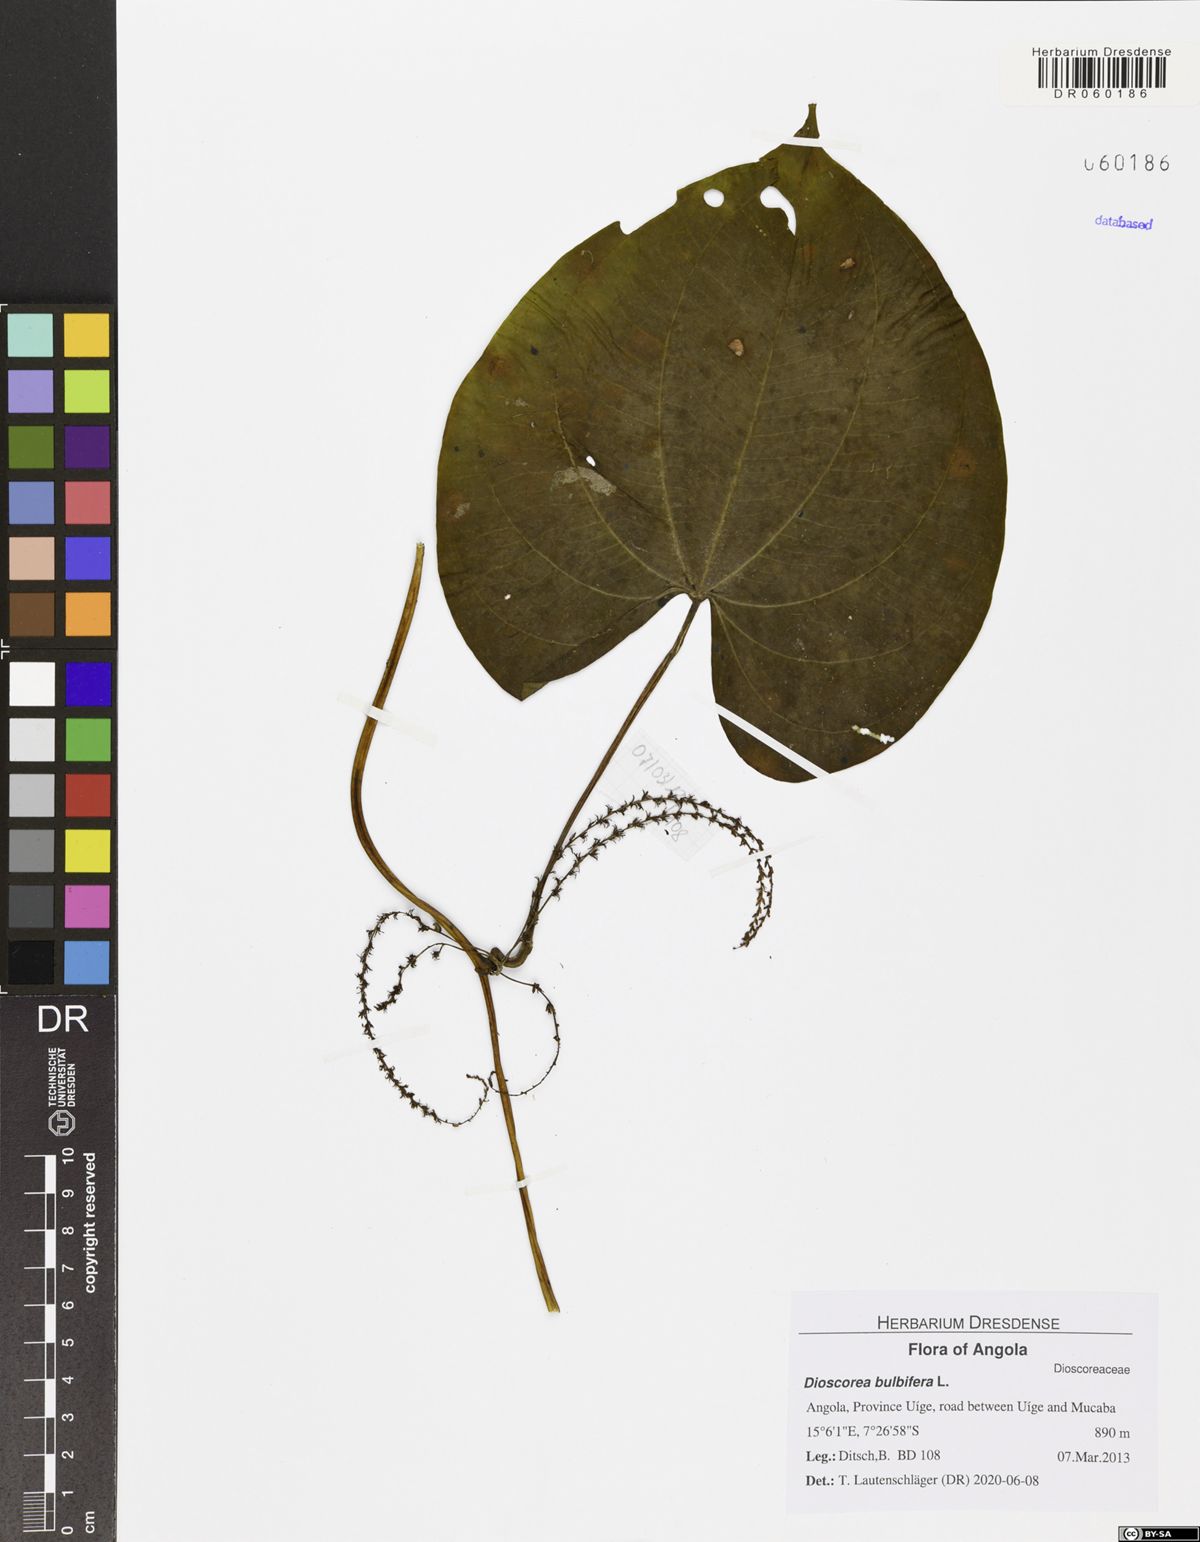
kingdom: Plantae
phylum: Tracheophyta
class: Liliopsida
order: Dioscoreales
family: Dioscoreaceae
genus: Dioscorea
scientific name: Dioscorea bulbifera
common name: Air yam
